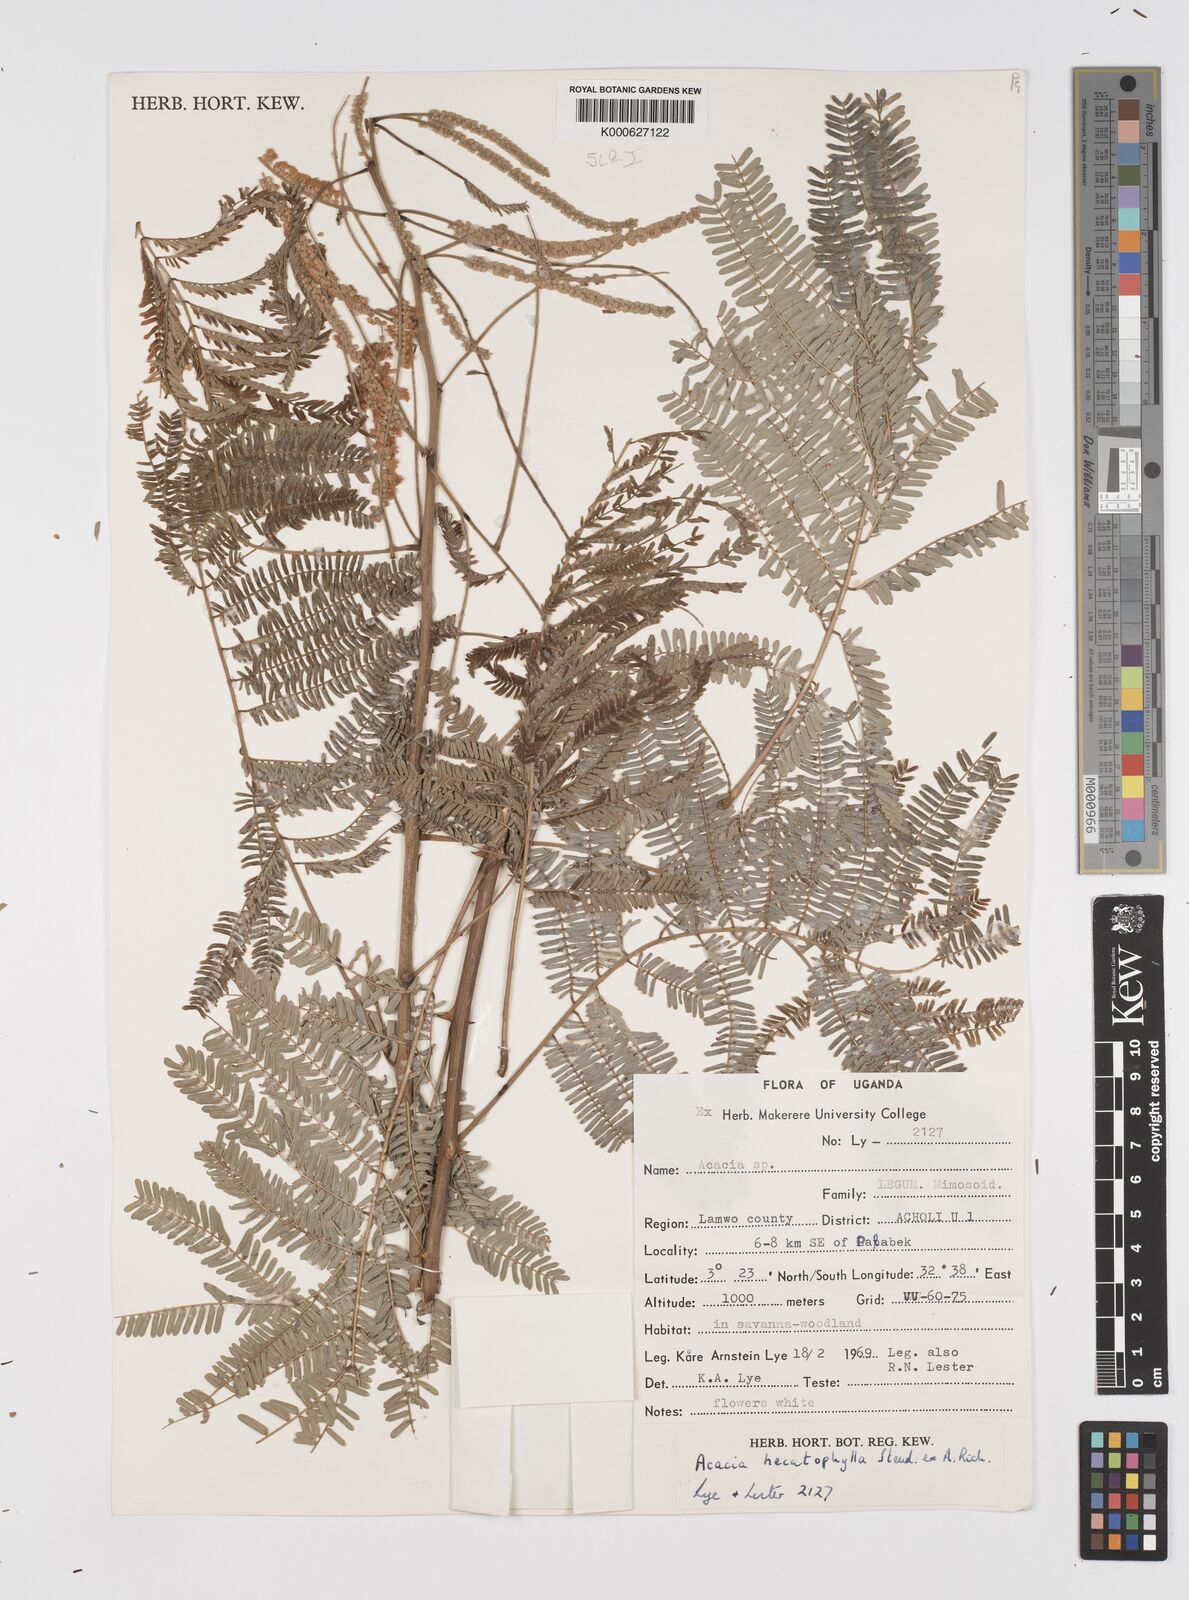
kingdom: Plantae
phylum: Tracheophyta
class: Magnoliopsida
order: Fabales
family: Fabaceae
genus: Senegalia
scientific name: Senegalia hecatophylla
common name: Long pod
